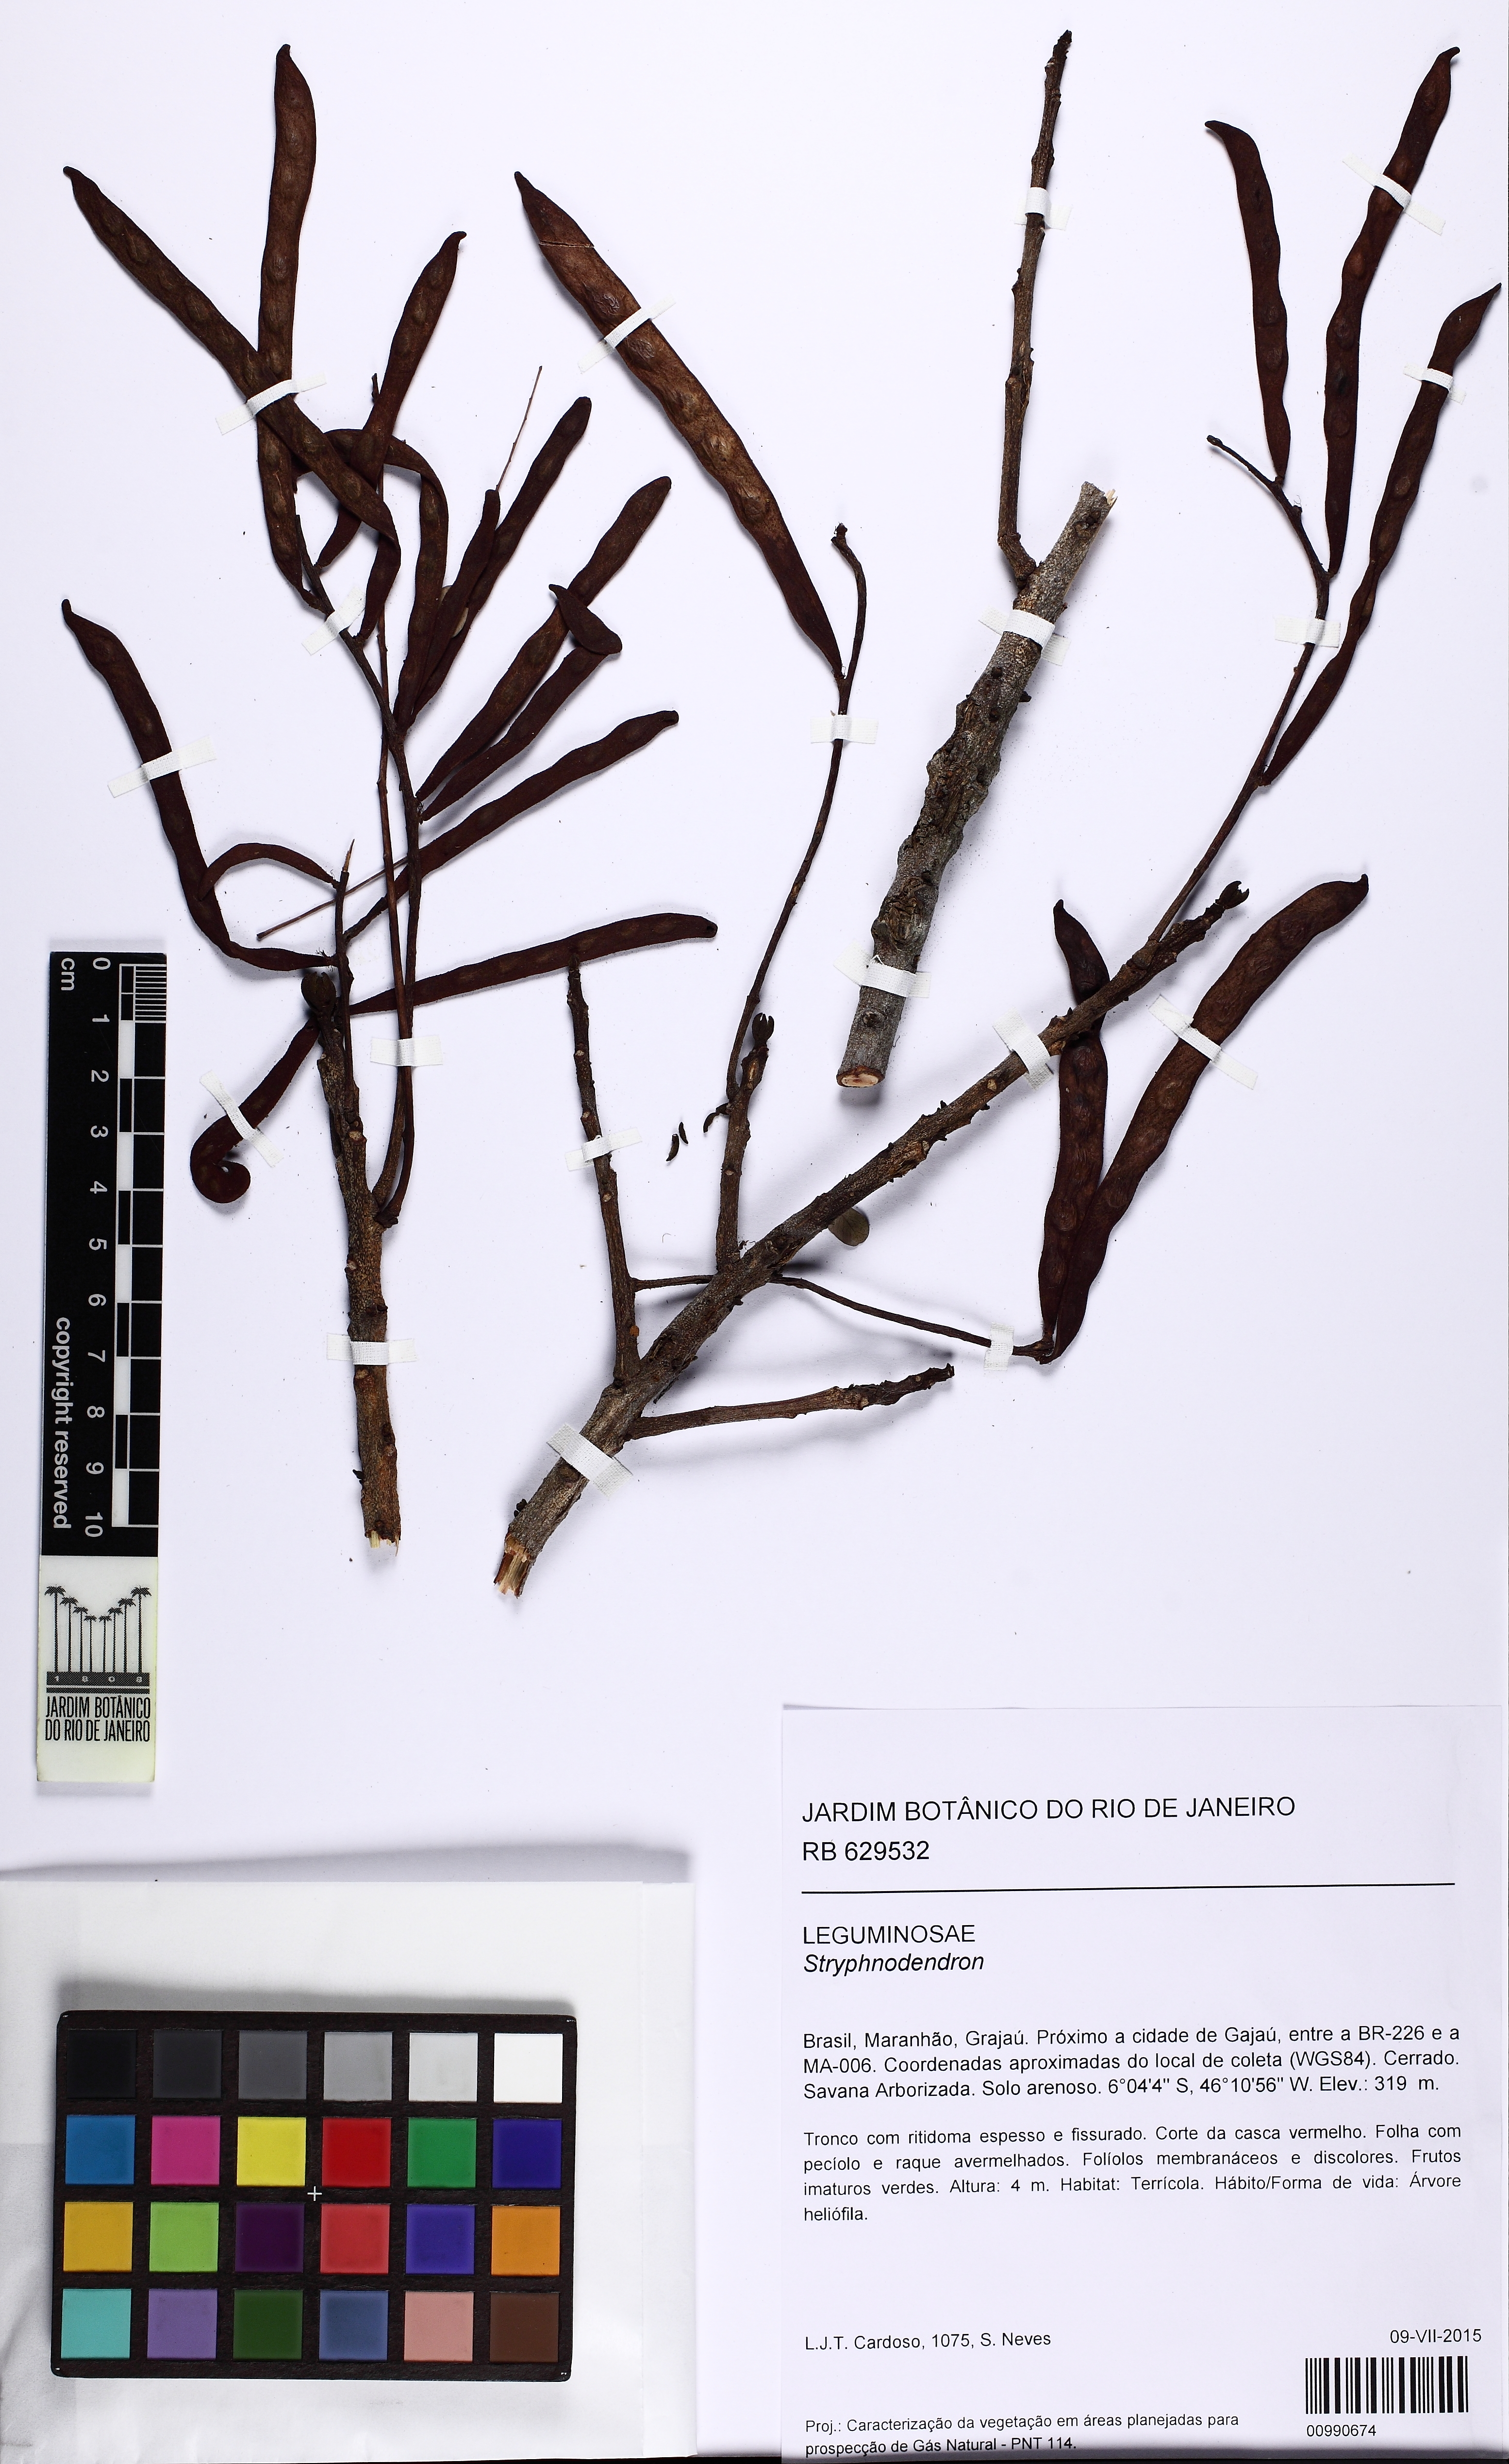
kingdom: Plantae
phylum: Tracheophyta
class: Magnoliopsida
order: Fabales
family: Fabaceae
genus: Stryphnodendron
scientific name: Stryphnodendron
